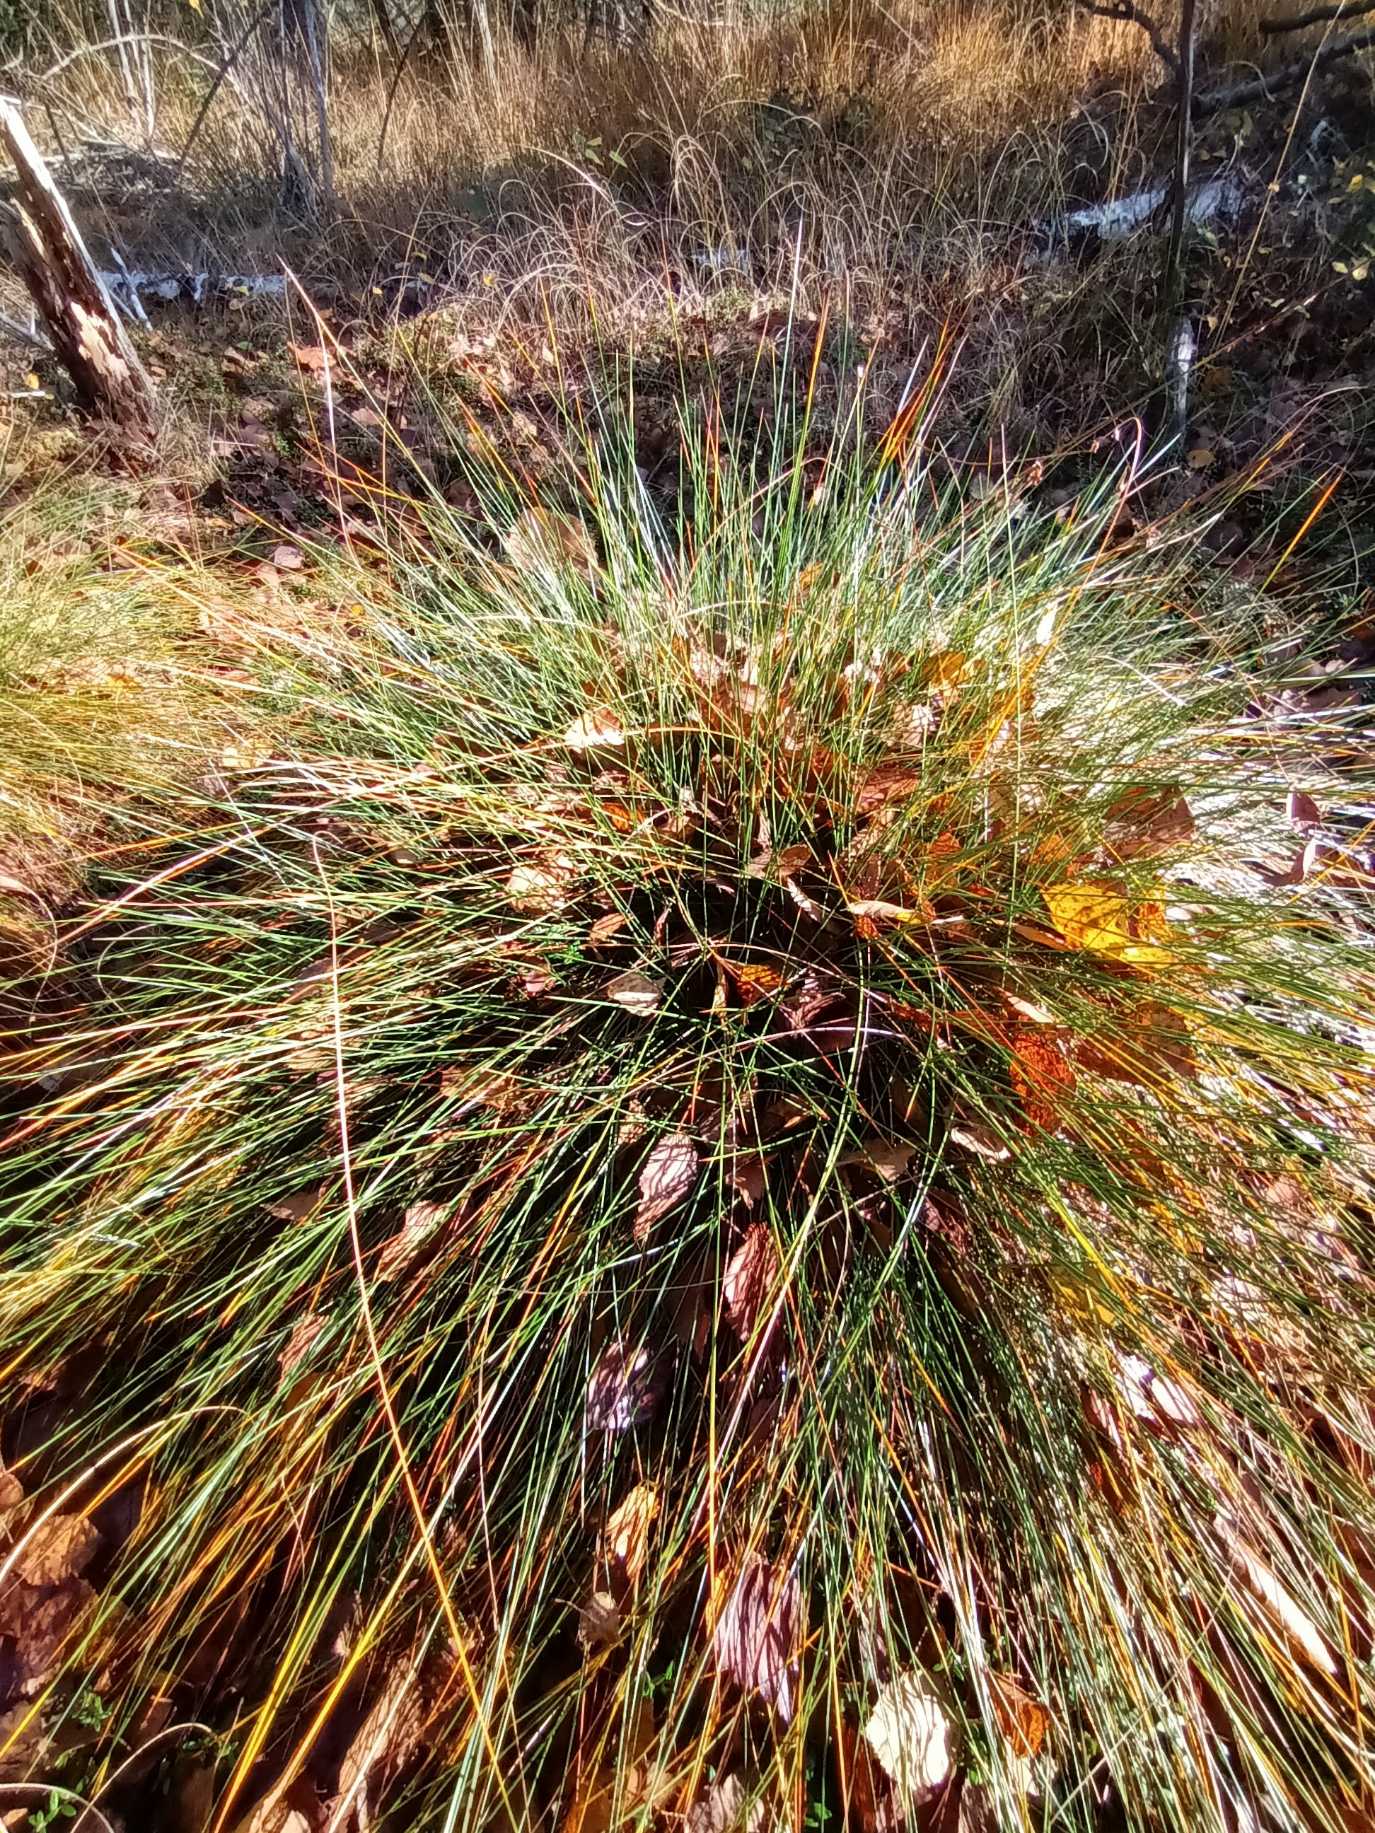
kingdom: Plantae
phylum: Tracheophyta
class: Liliopsida
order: Poales
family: Cyperaceae
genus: Eriophorum
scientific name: Eriophorum vaginatum
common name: Tue-kæruld
